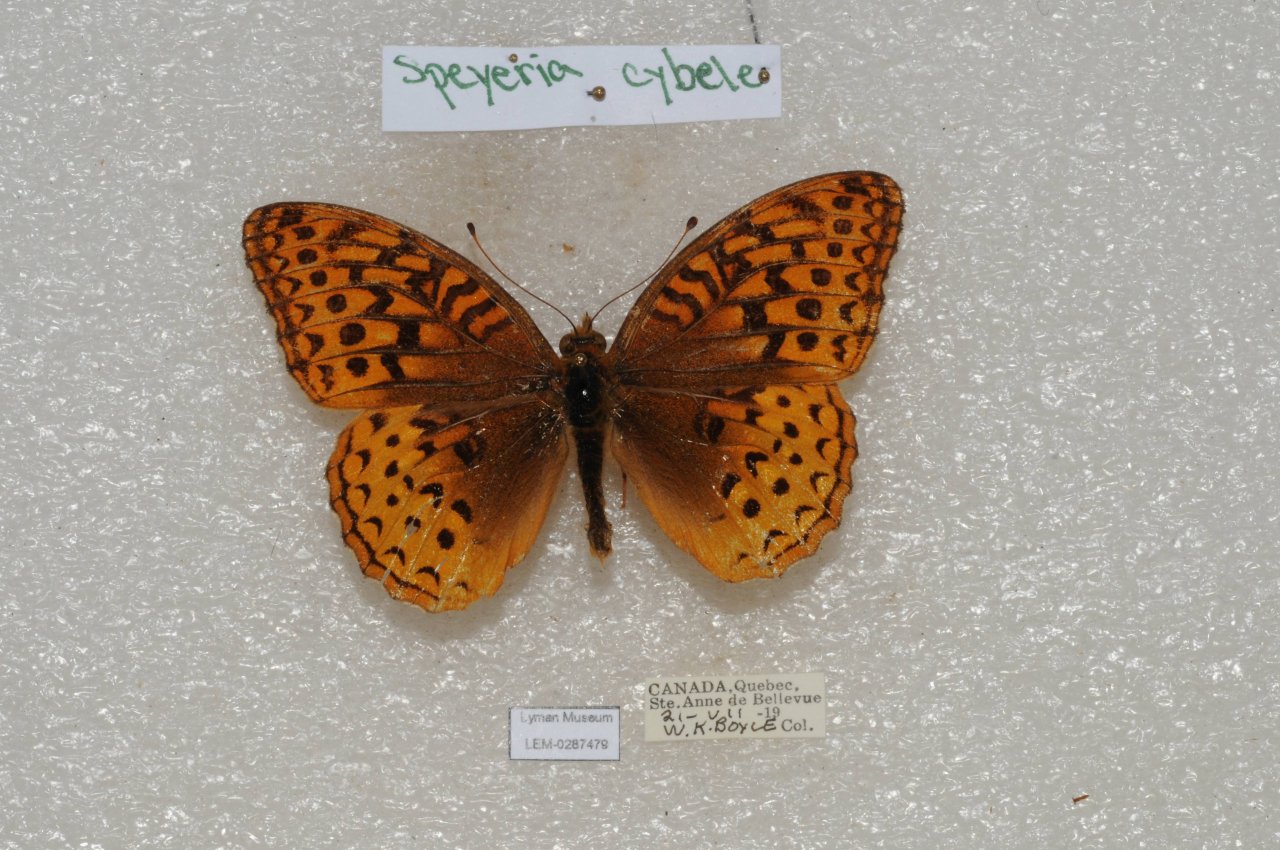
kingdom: Animalia
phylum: Arthropoda
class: Insecta
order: Lepidoptera
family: Nymphalidae
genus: Speyeria
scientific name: Speyeria cybele
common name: Great Spangled Fritillary
